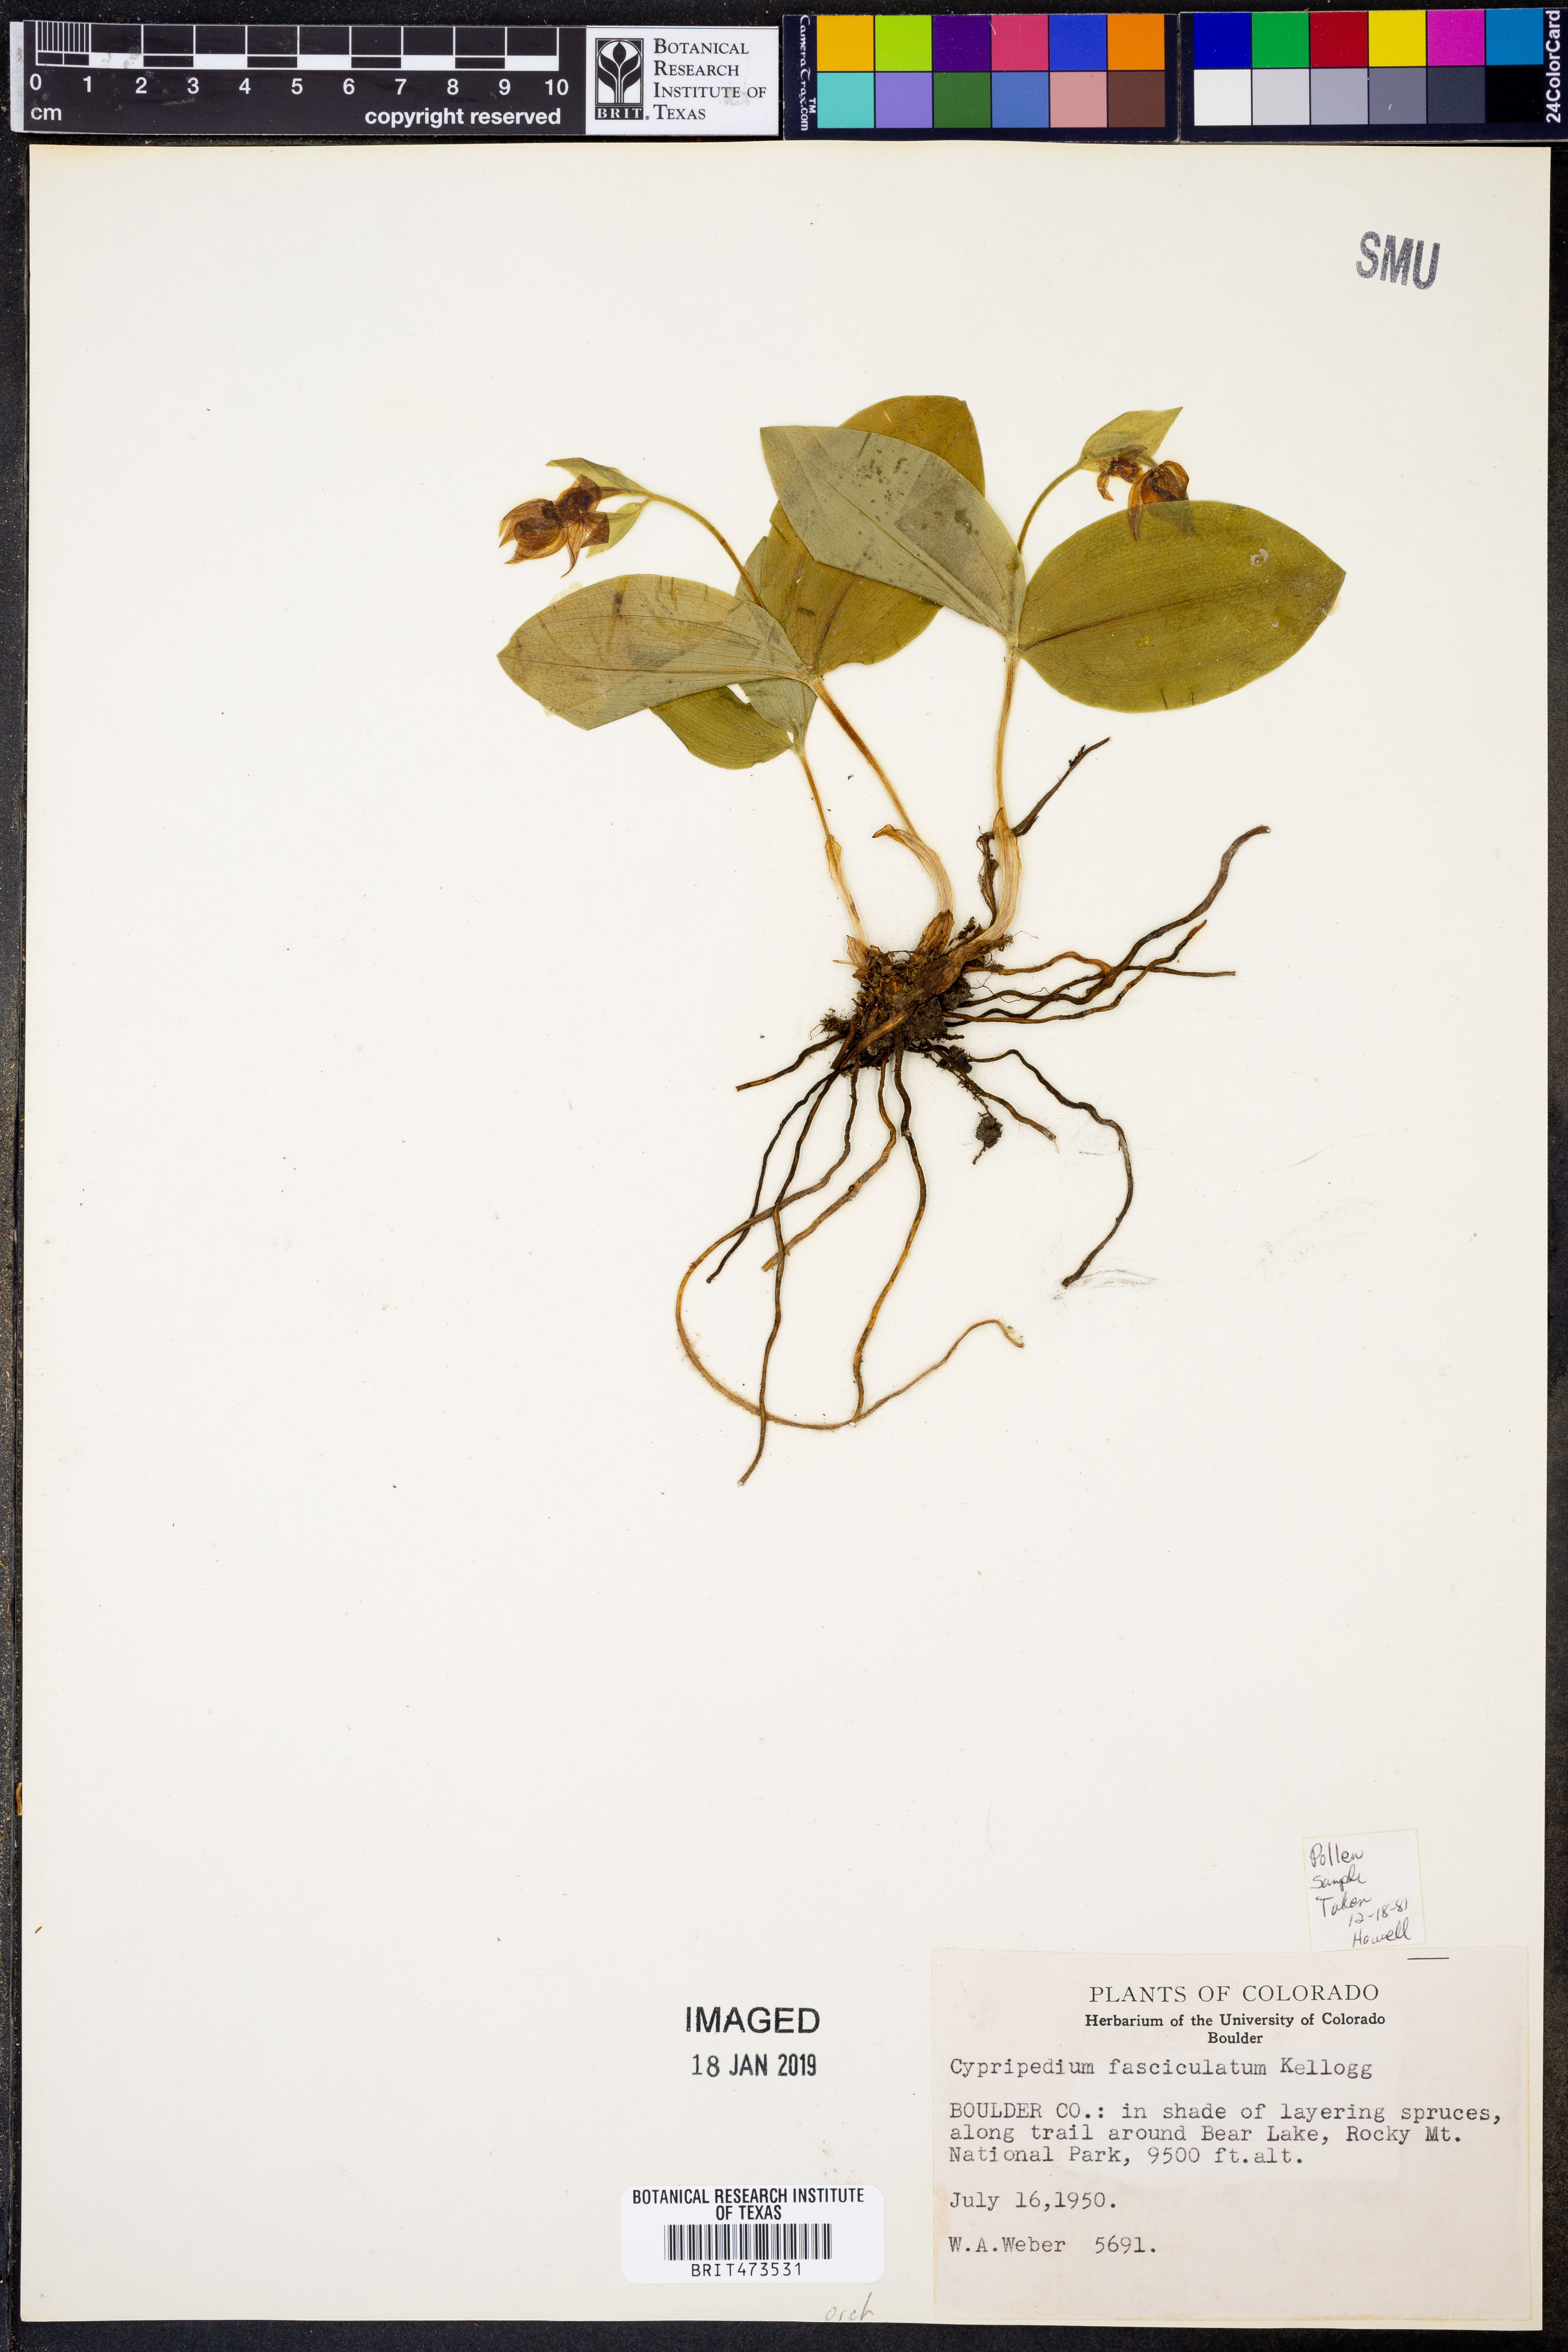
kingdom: Plantae
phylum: Tracheophyta
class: Liliopsida
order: Asparagales
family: Orchidaceae
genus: Cypripedium
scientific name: Cypripedium fasciculatum
